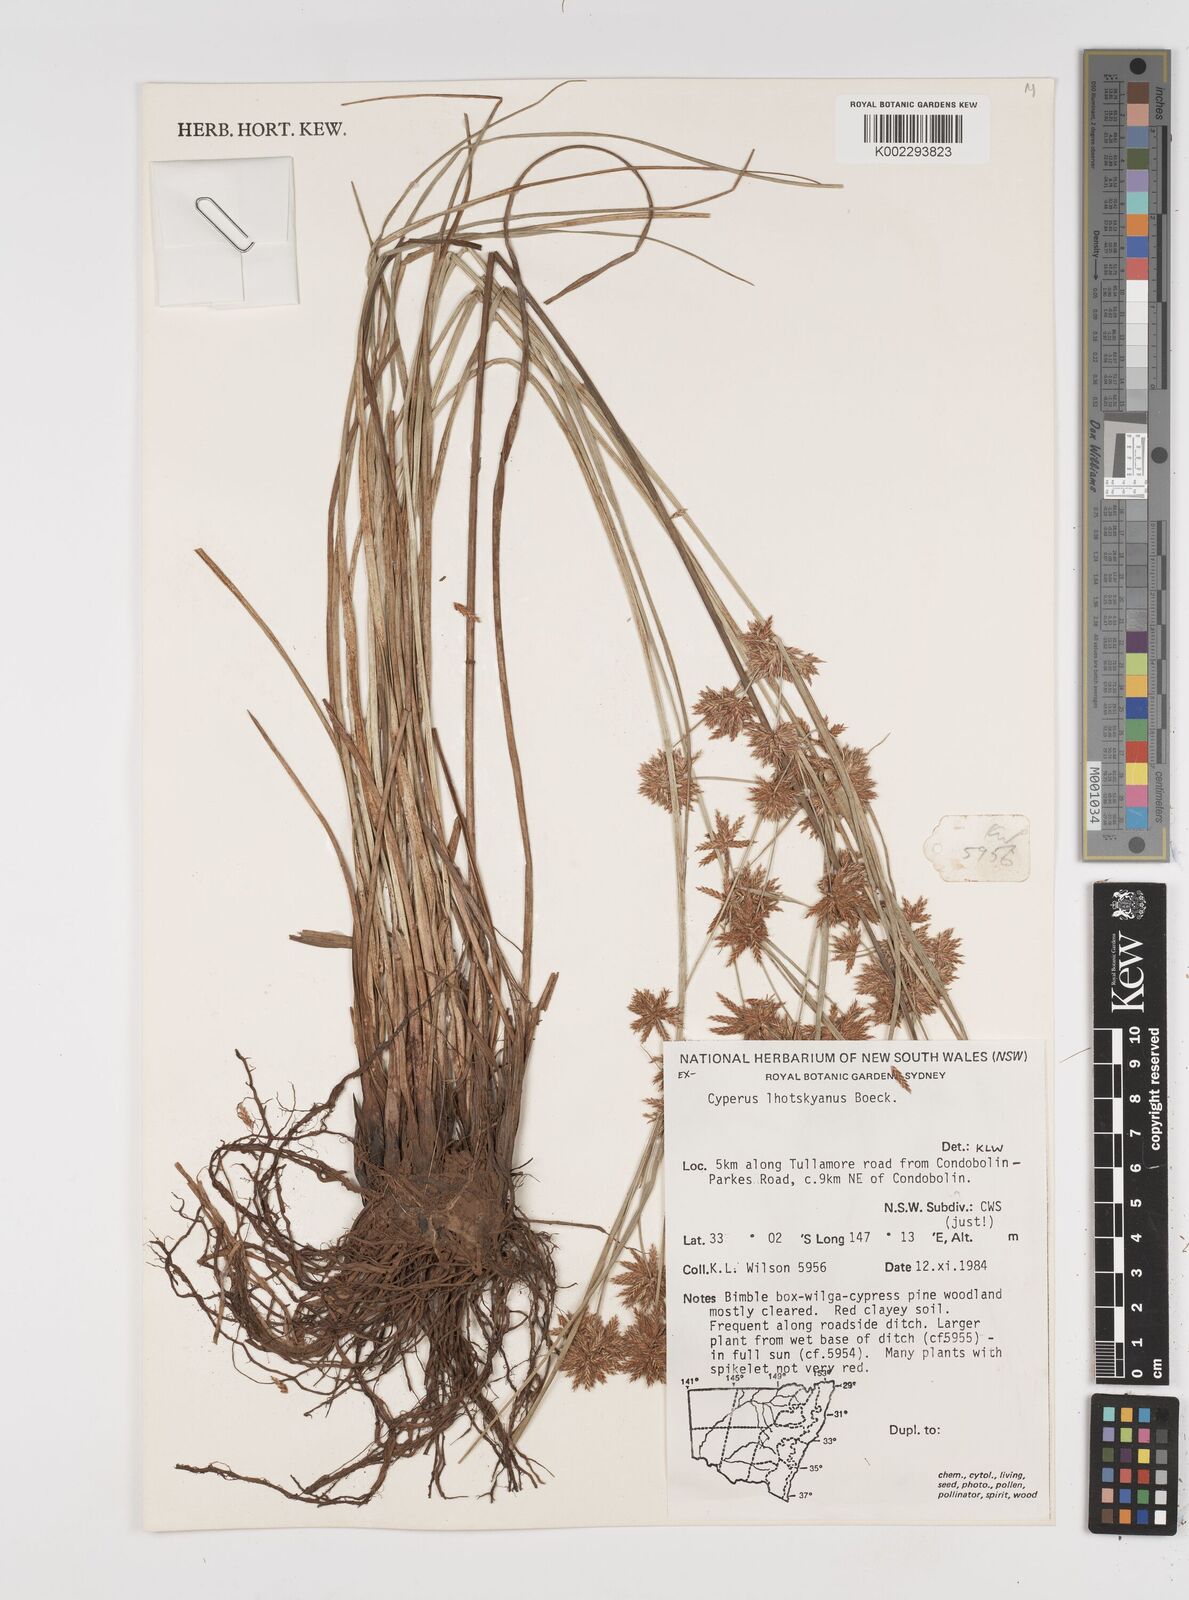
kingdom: Plantae
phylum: Tracheophyta
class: Liliopsida
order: Poales
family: Cyperaceae
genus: Cyperus
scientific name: Cyperus lhotskyanus
